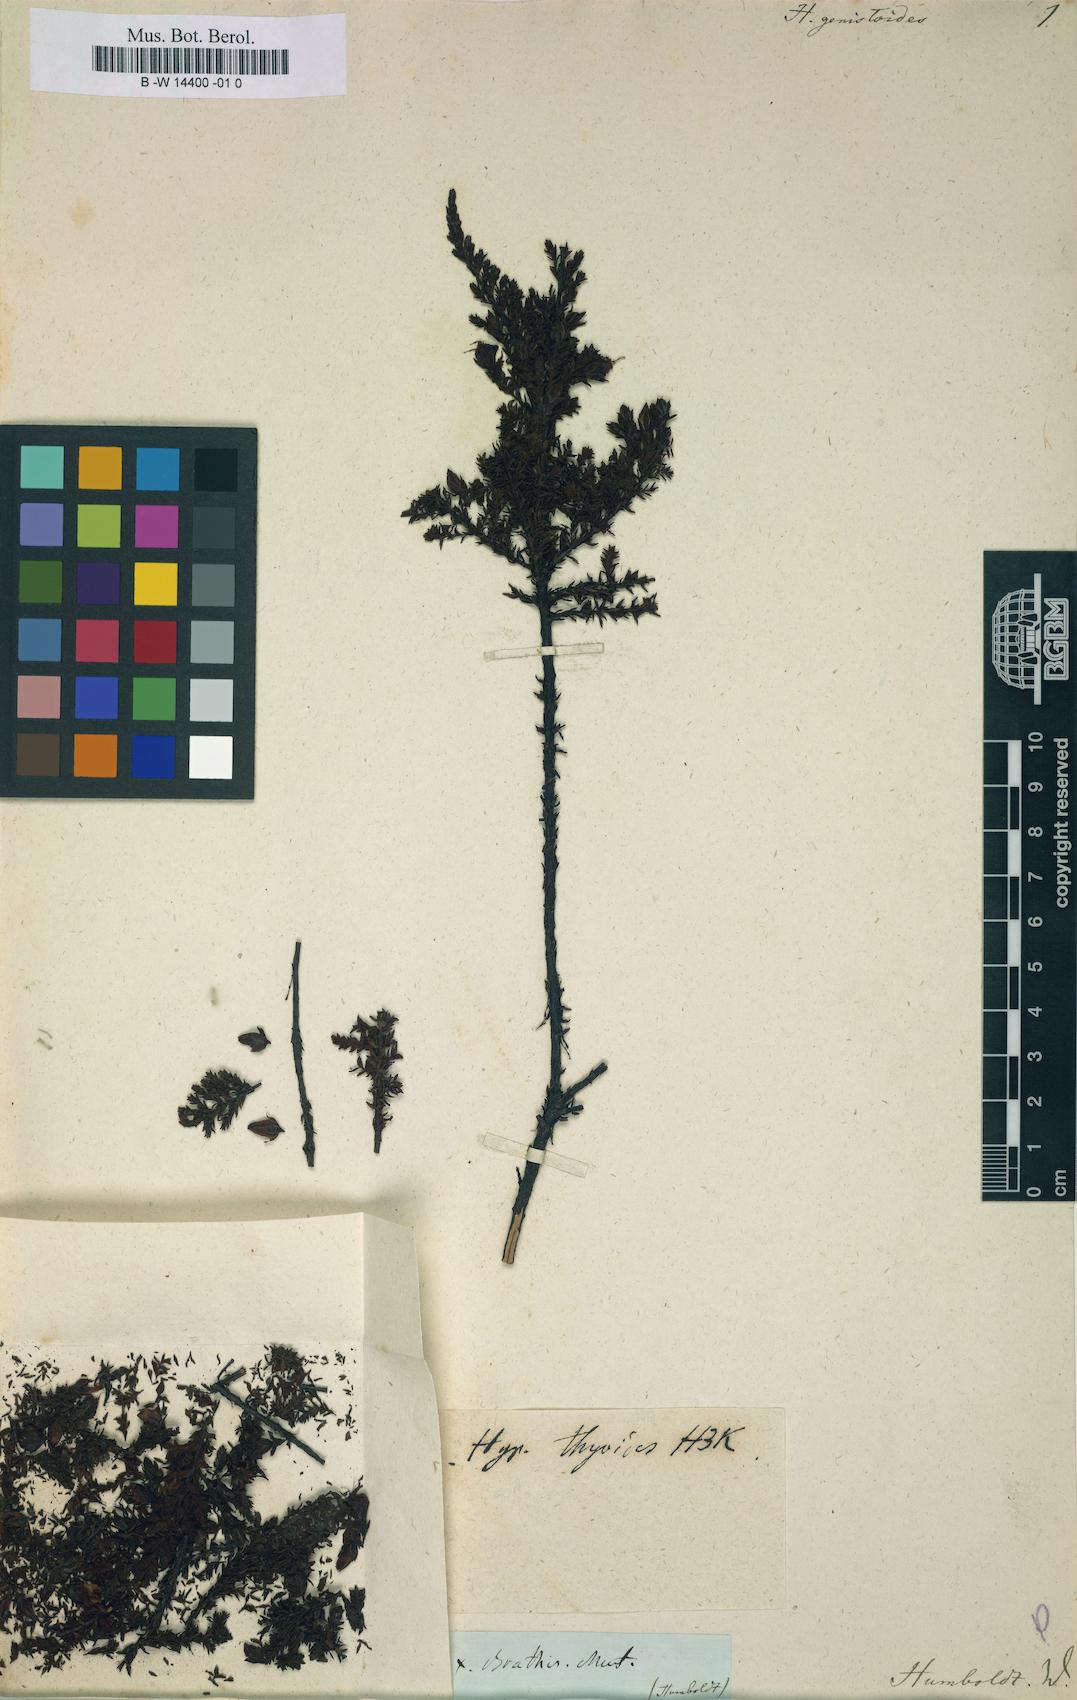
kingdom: Plantae
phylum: Tracheophyta
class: Magnoliopsida
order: Malpighiales
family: Hypericaceae
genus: Hypericum
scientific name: Hypericum genistoides
